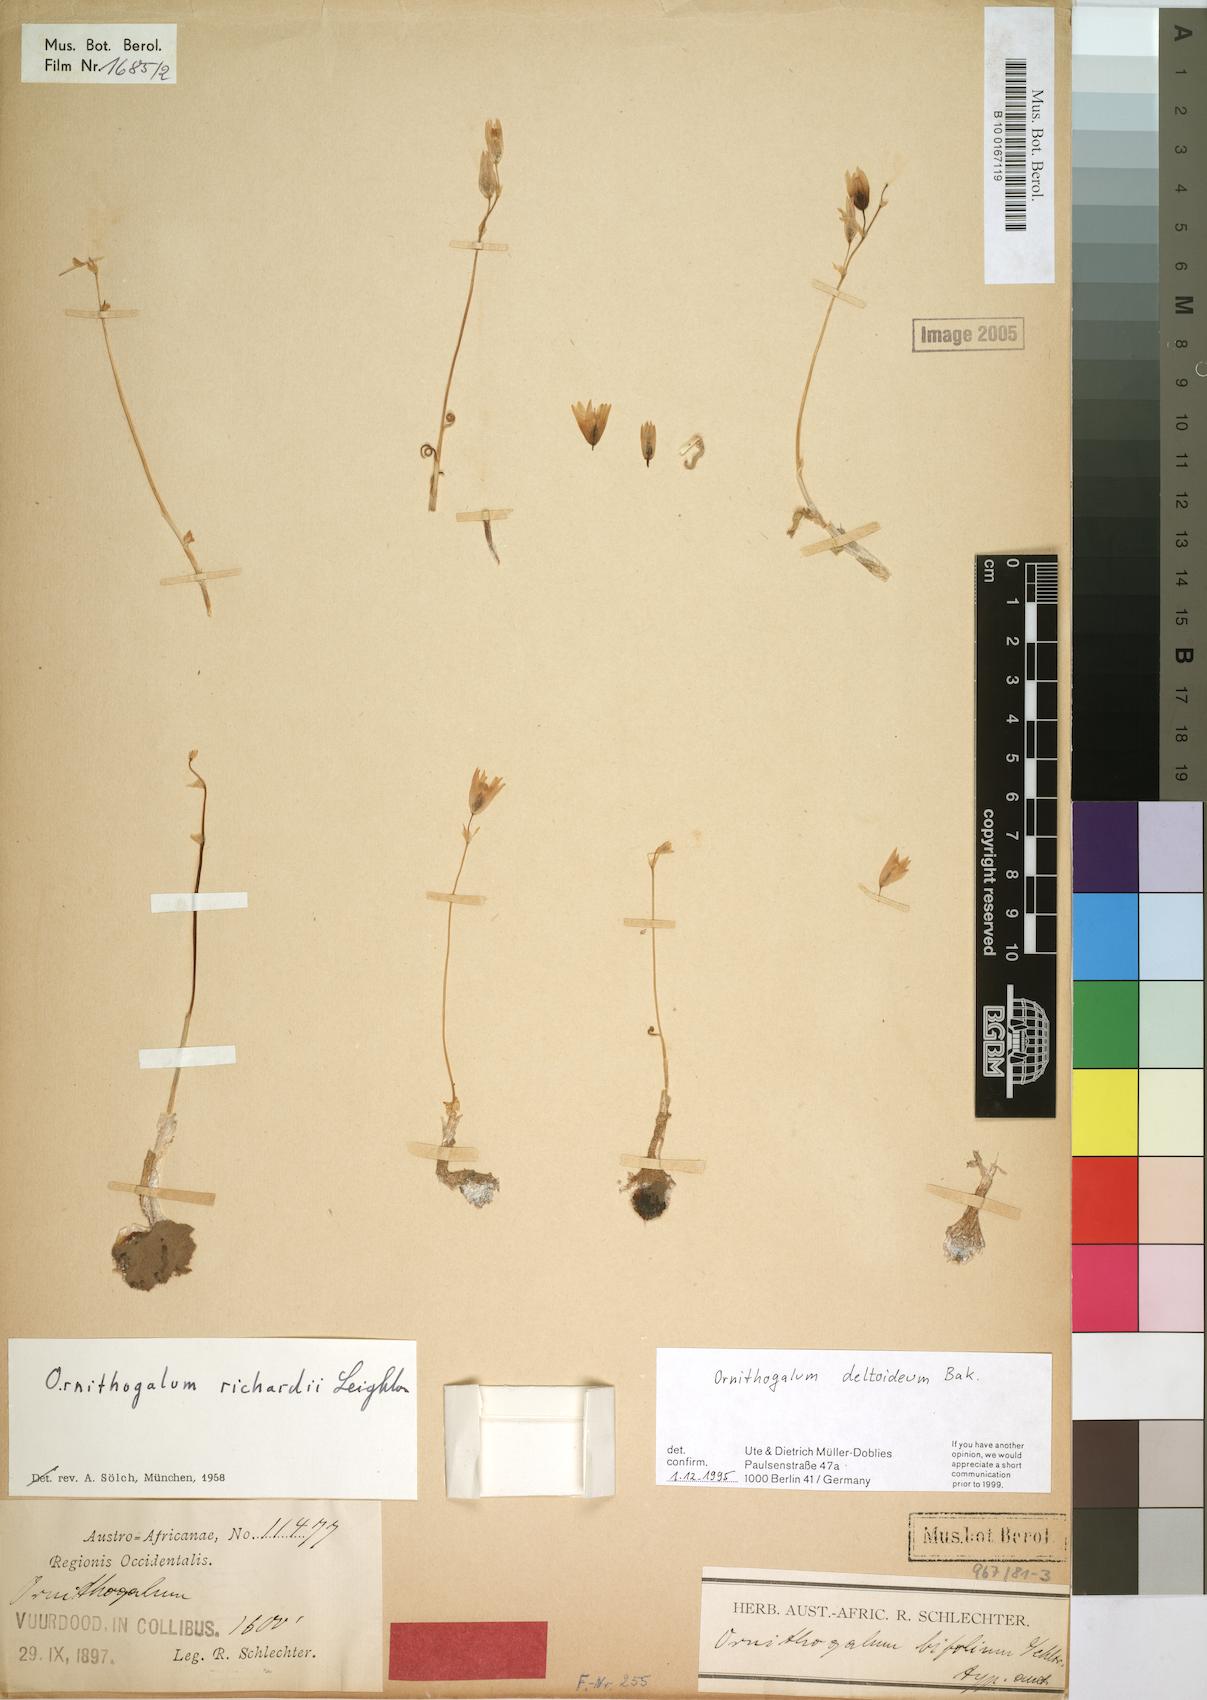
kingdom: Plantae
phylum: Tracheophyta
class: Liliopsida
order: Asparagales
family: Asparagaceae
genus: Ornithogalum
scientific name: Ornithogalum deltoideum
